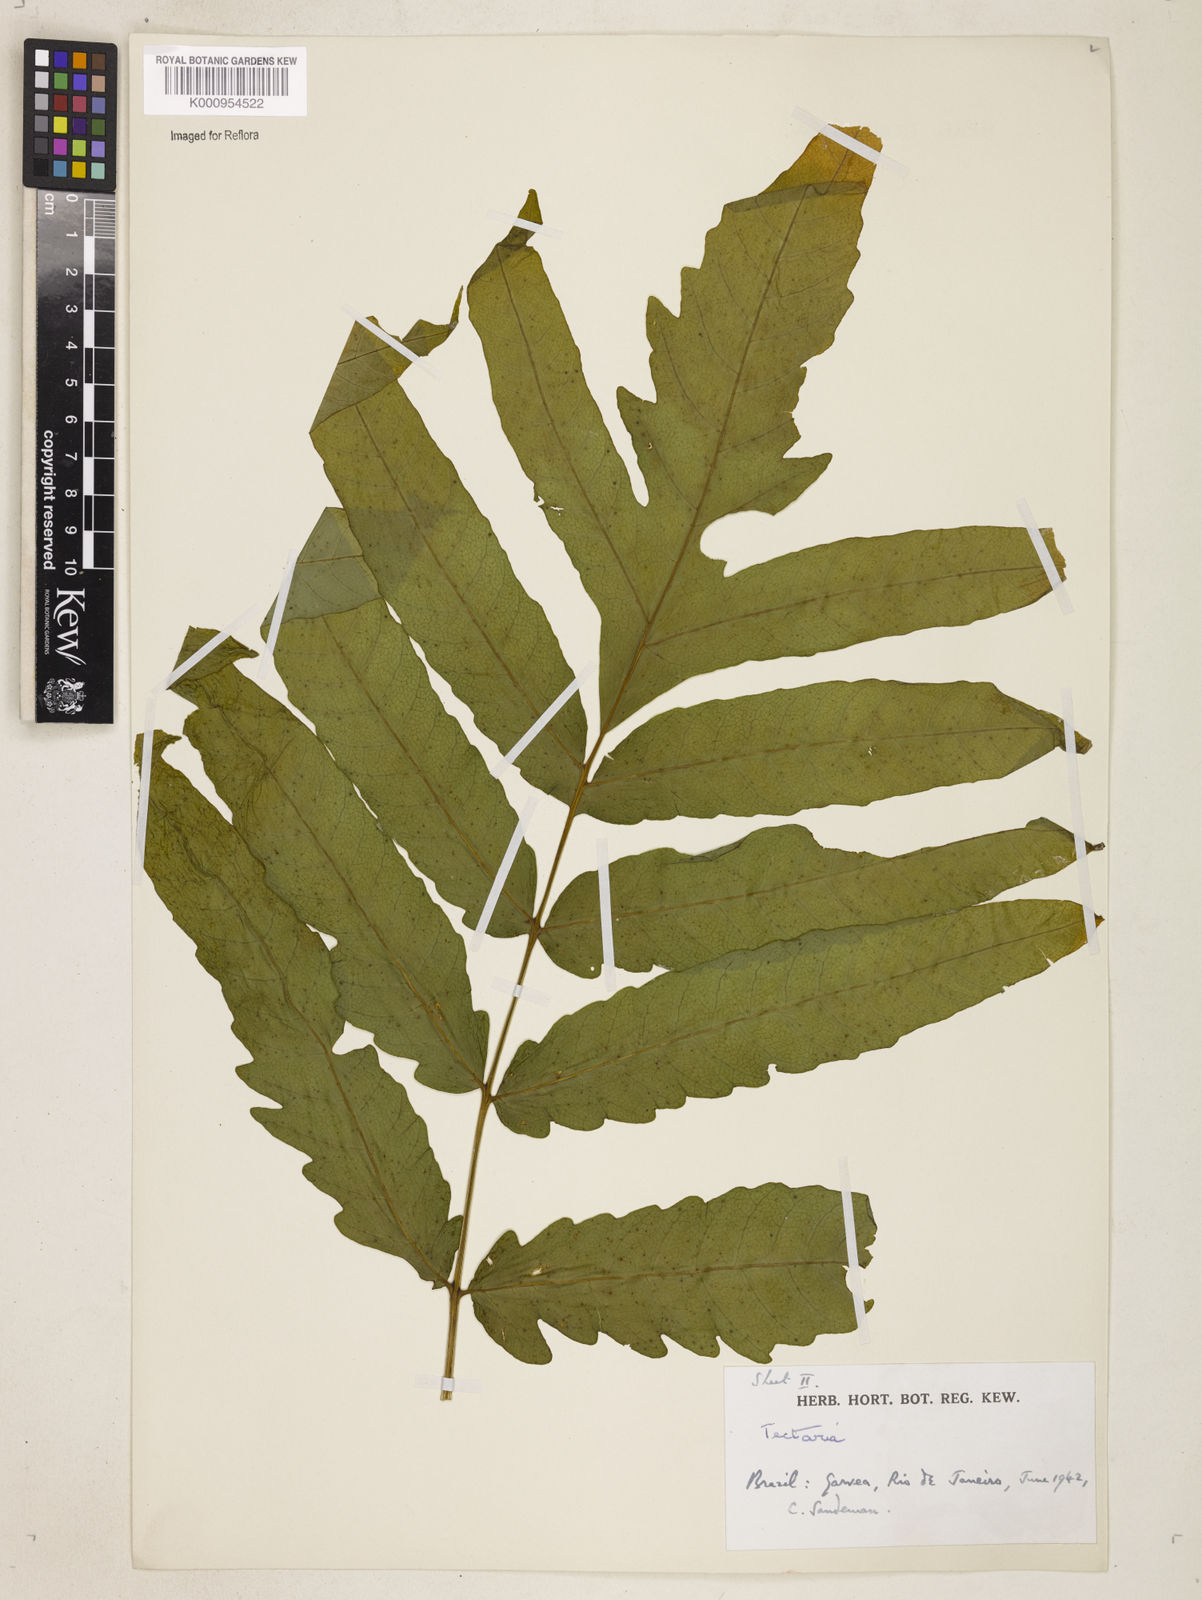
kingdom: Plantae
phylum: Tracheophyta
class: Polypodiopsida
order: Polypodiales
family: Tectariaceae
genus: Tectaria
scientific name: Tectaria incisa
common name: Incised halberd fern
